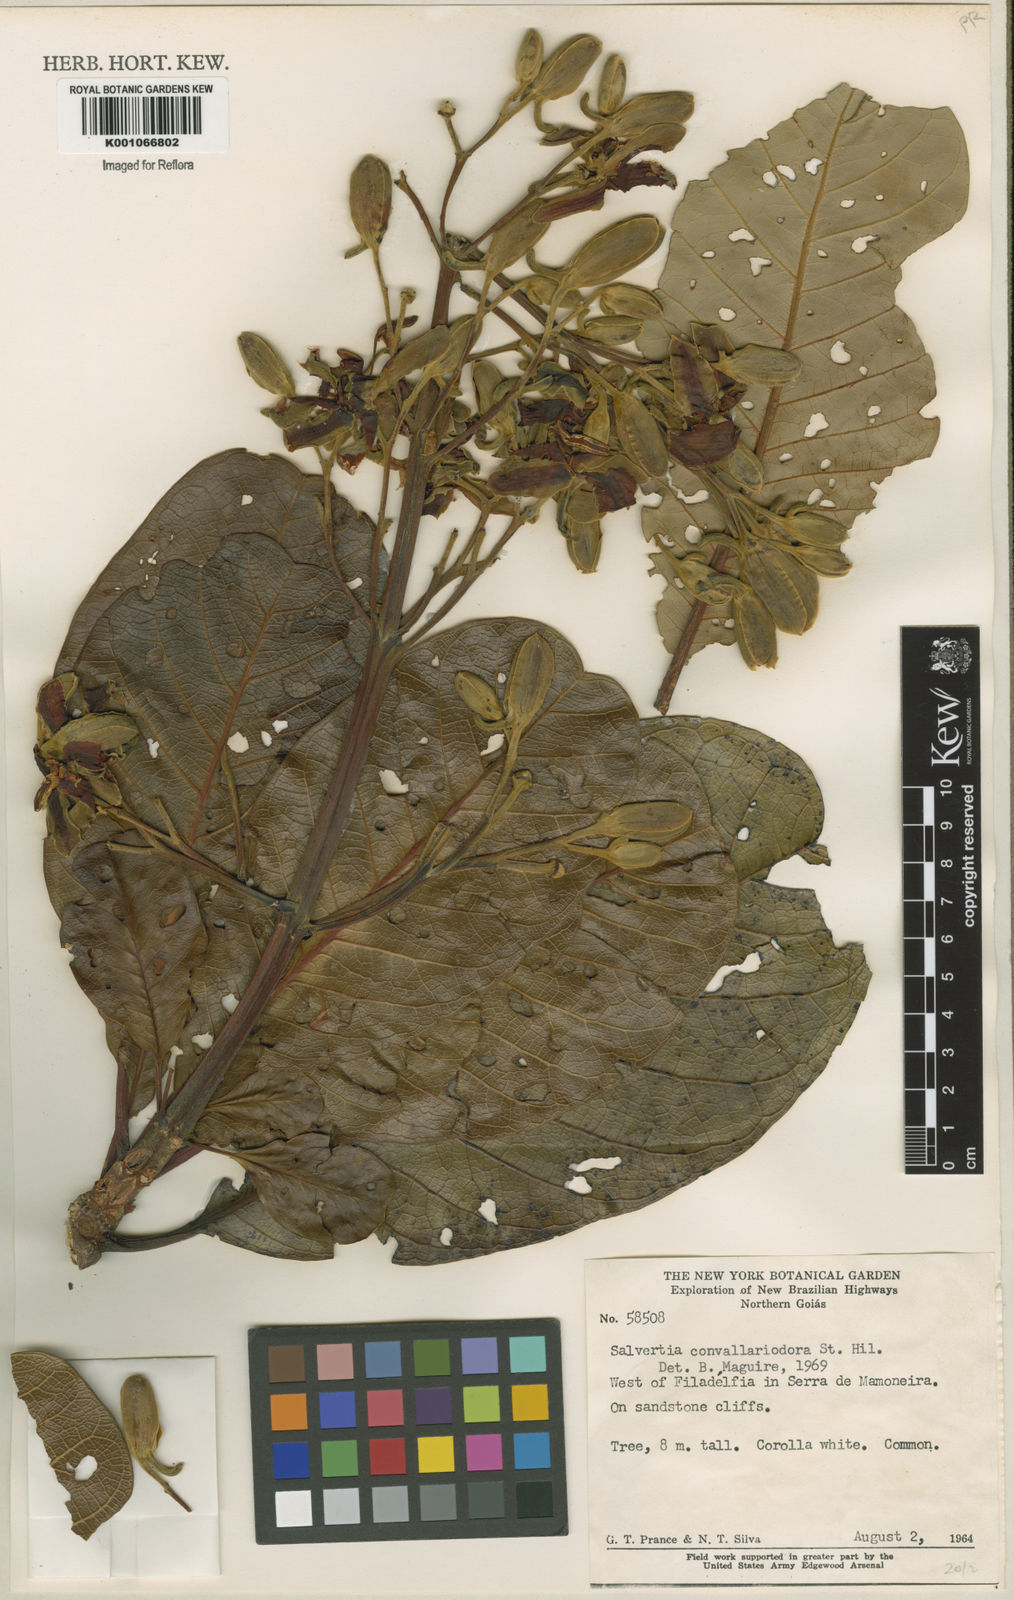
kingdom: Plantae
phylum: Tracheophyta
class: Magnoliopsida
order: Myrtales
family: Vochysiaceae
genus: Salvertia
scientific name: Salvertia convallariodora
